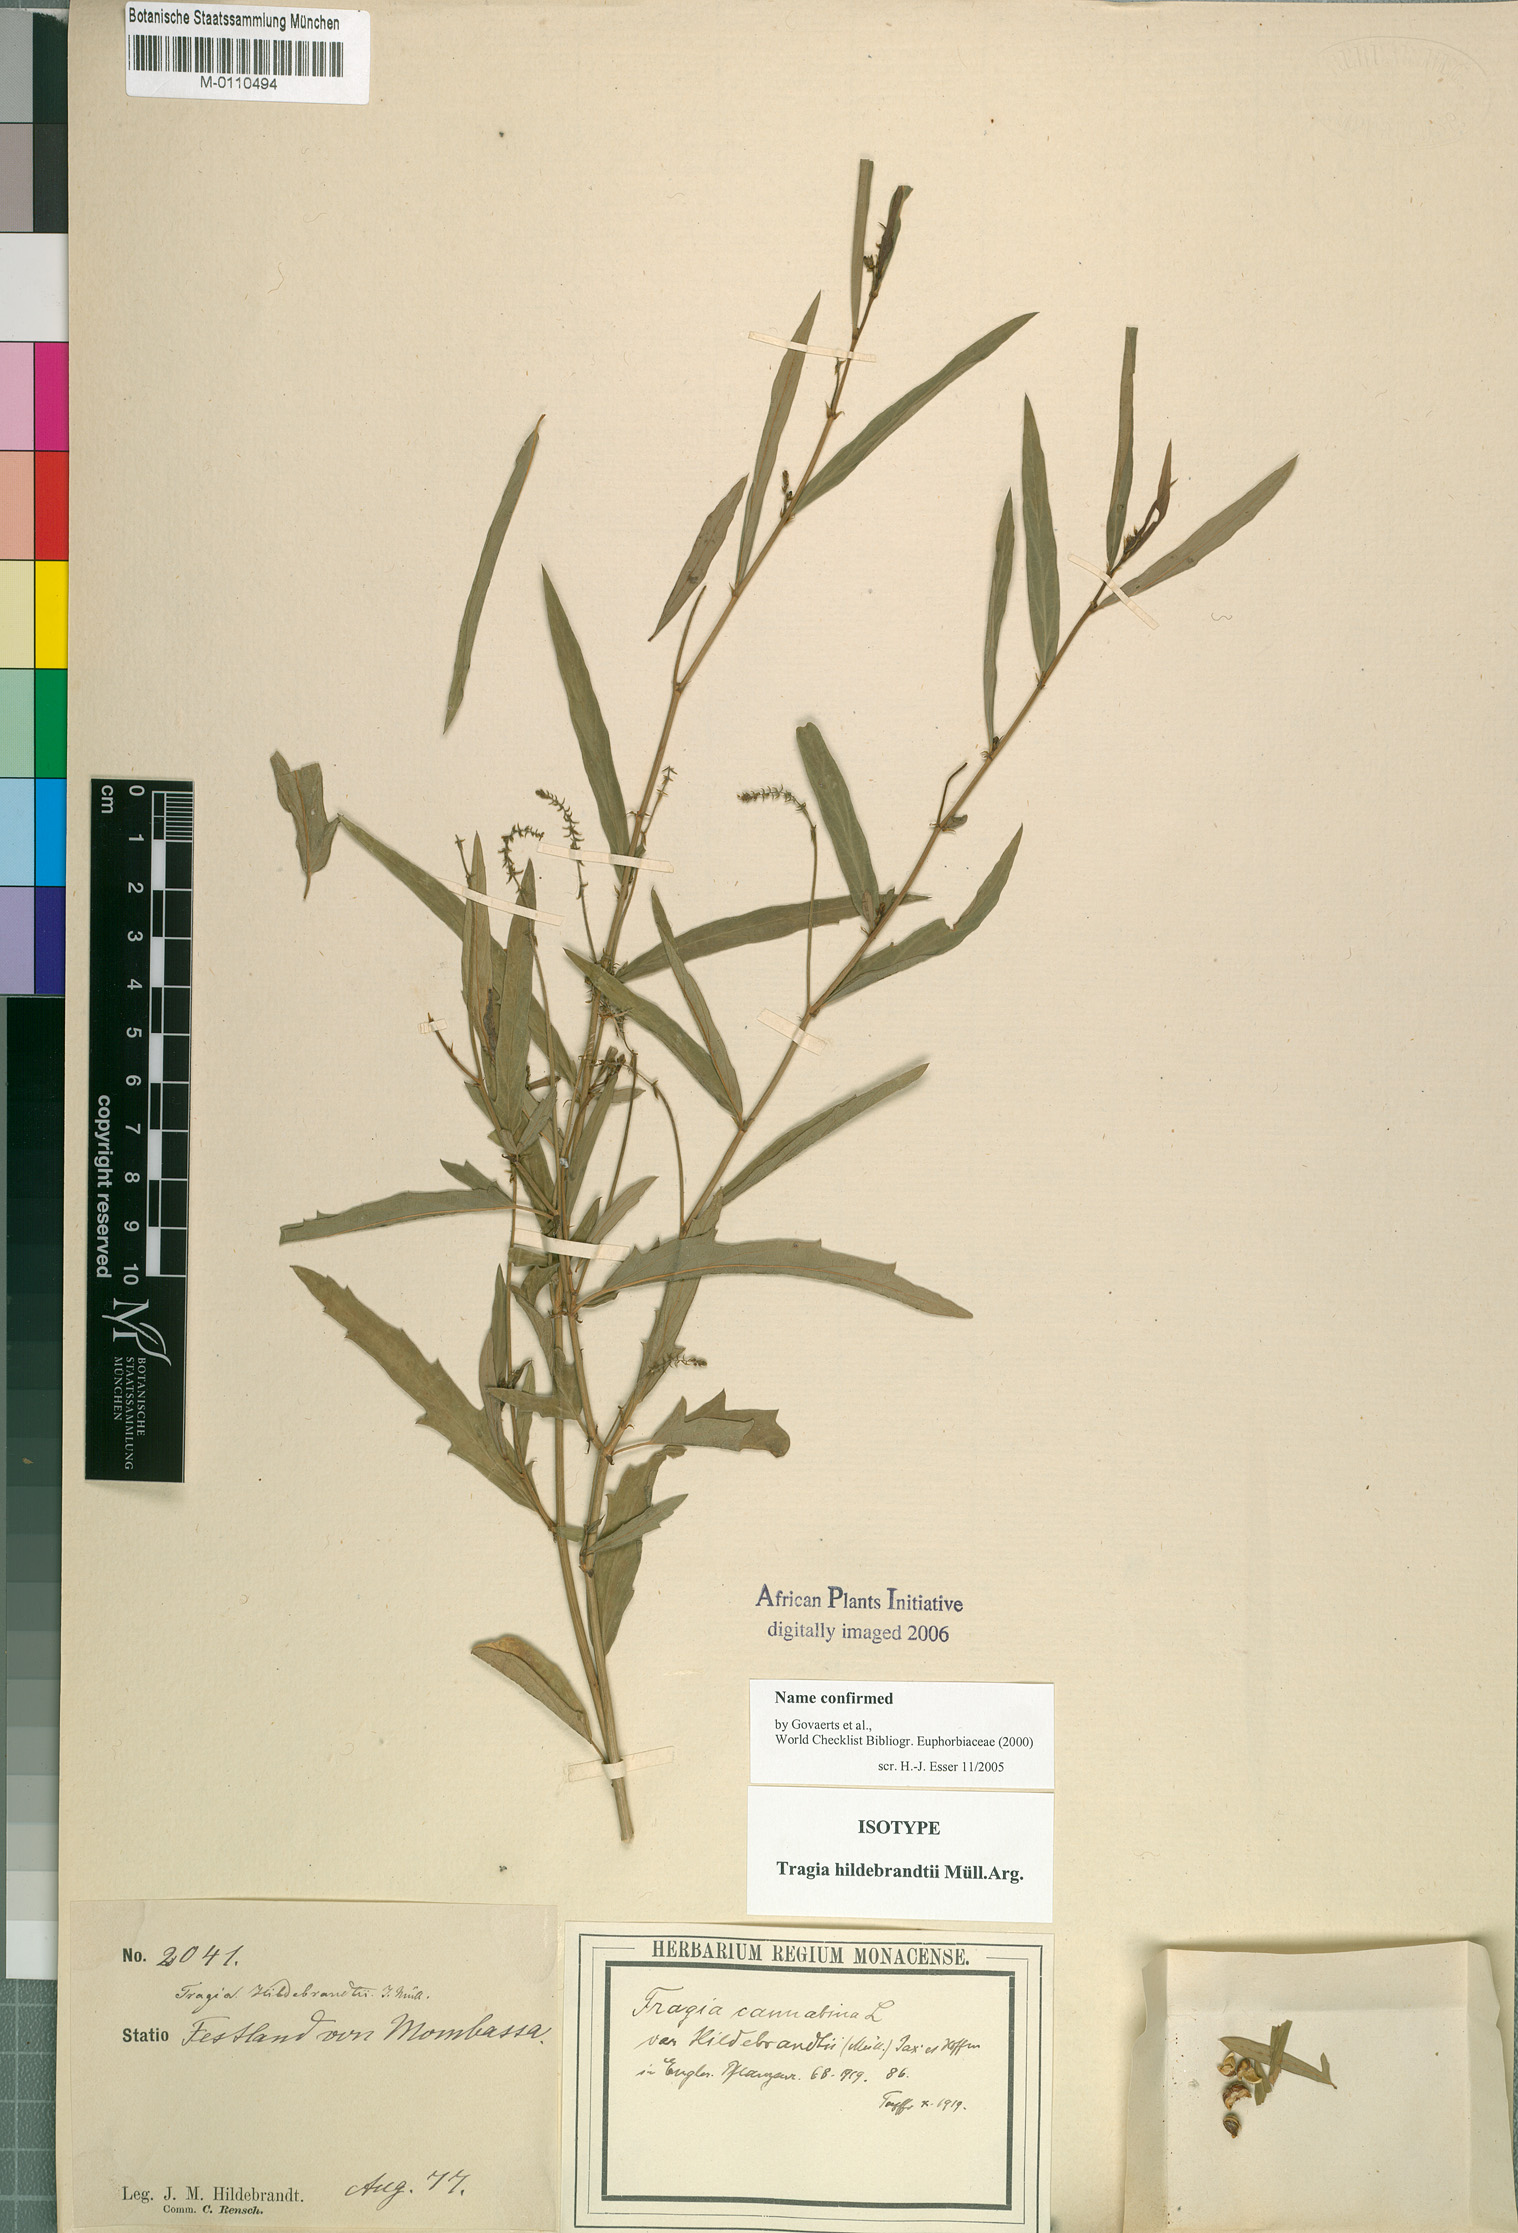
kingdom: Plantae
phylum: Tracheophyta
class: Magnoliopsida
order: Malpighiales
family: Euphorbiaceae
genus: Tragia
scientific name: Tragia hildebrandtii
